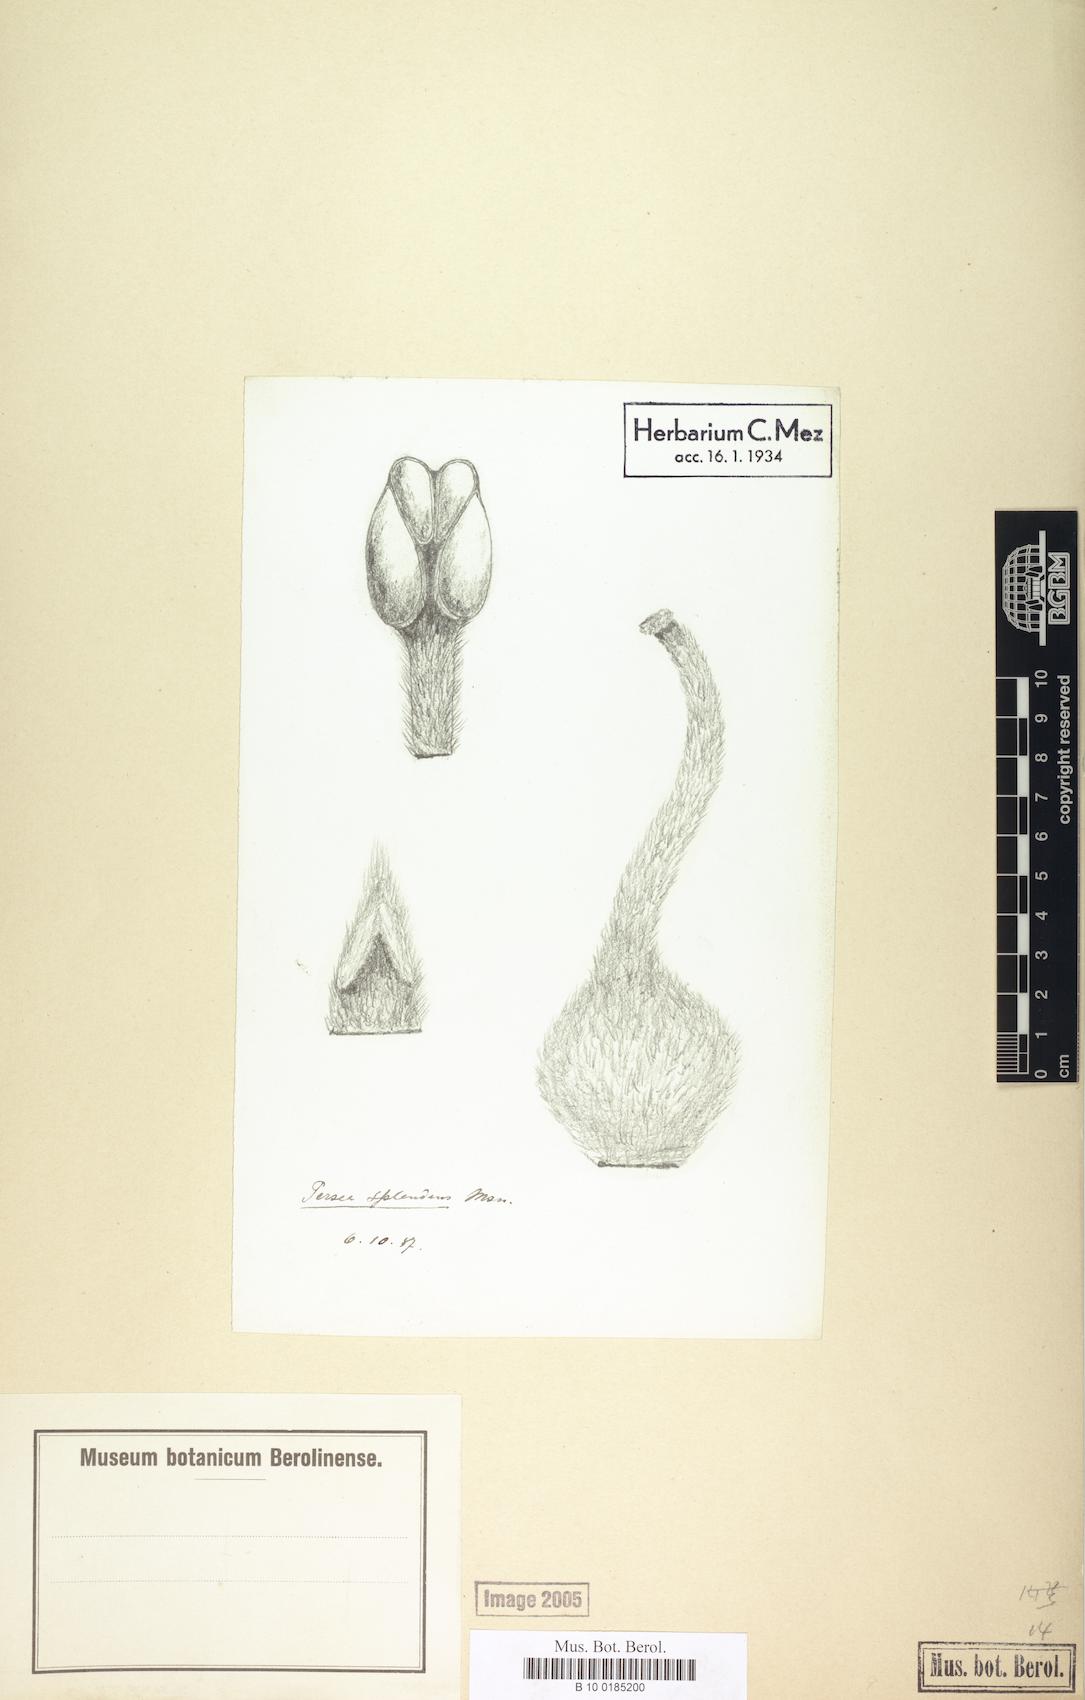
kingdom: Plantae
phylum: Tracheophyta
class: Magnoliopsida
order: Laurales
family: Lauraceae
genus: Persea
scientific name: Persea splendens
